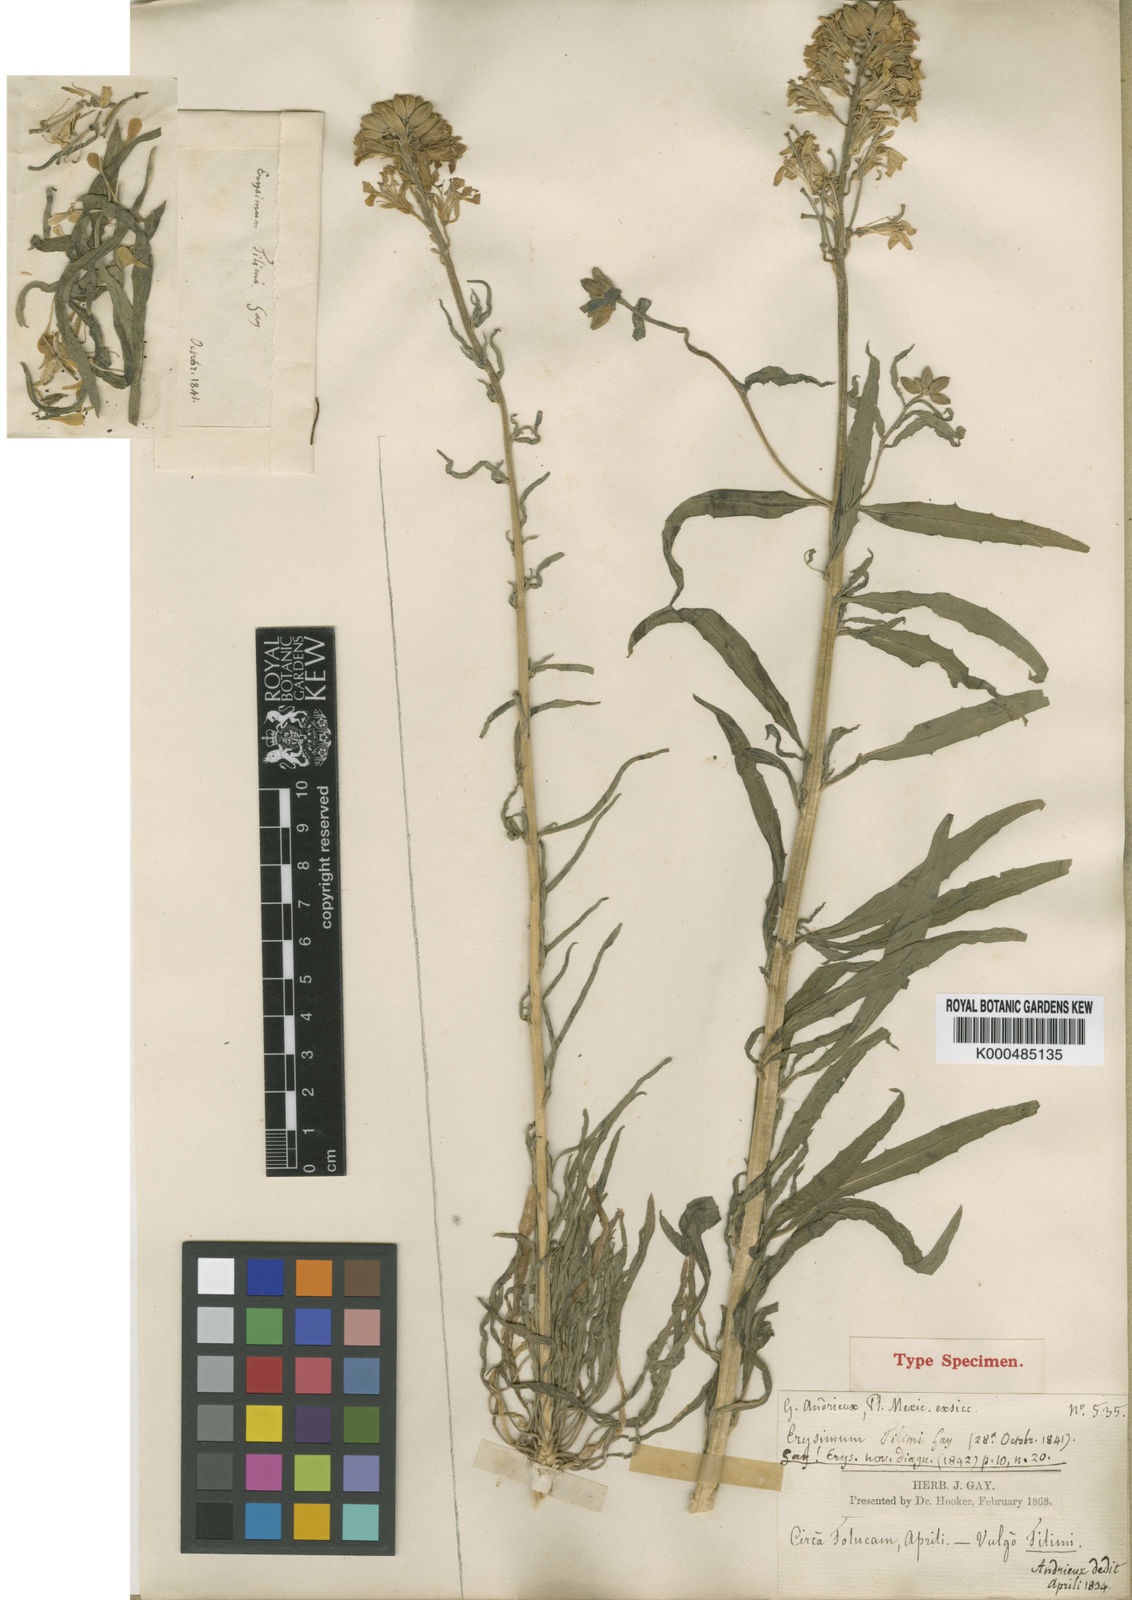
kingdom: Plantae
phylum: Tracheophyta
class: Magnoliopsida
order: Brassicales
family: Brassicaceae
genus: Erysimum
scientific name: Erysimum capitatum
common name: Western wallflower
